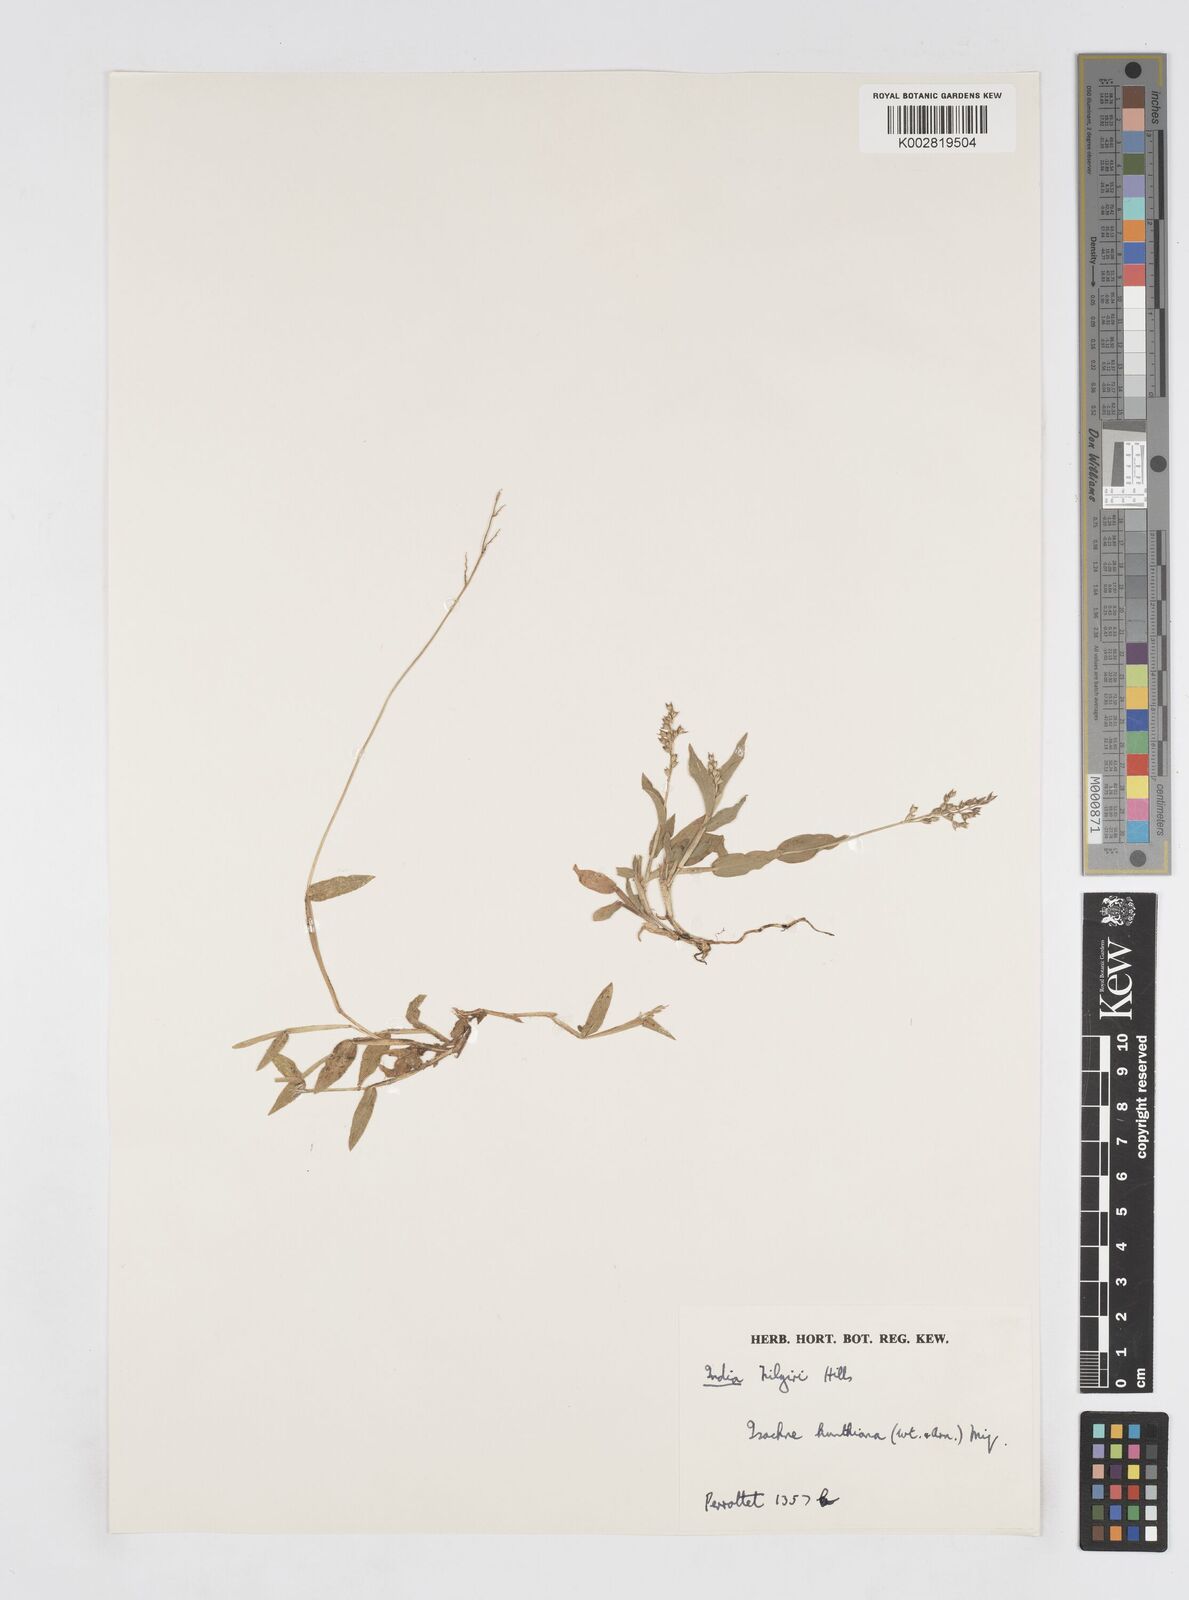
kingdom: Plantae
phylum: Tracheophyta
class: Liliopsida
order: Poales
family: Poaceae
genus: Isachne
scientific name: Isachne kunthiana
